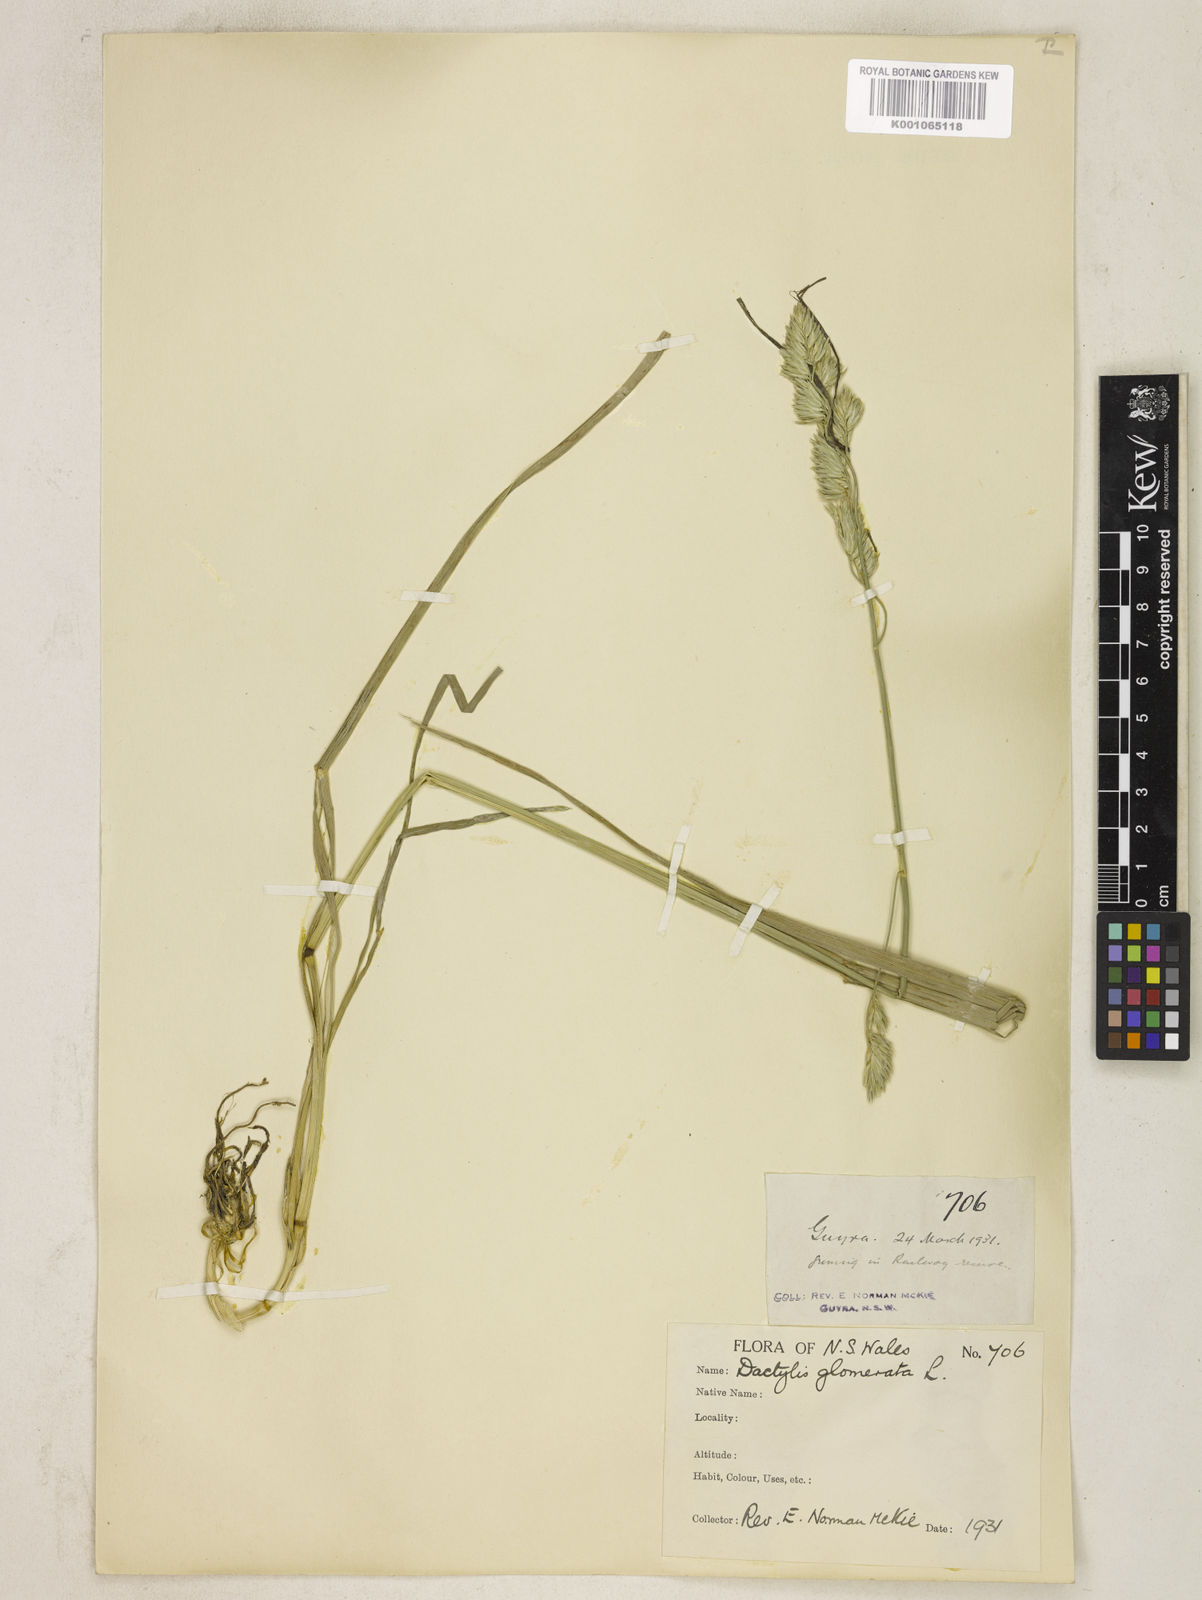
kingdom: Plantae
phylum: Tracheophyta
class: Liliopsida
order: Poales
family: Poaceae
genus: Dactylis
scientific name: Dactylis glomerata
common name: Orchardgrass
